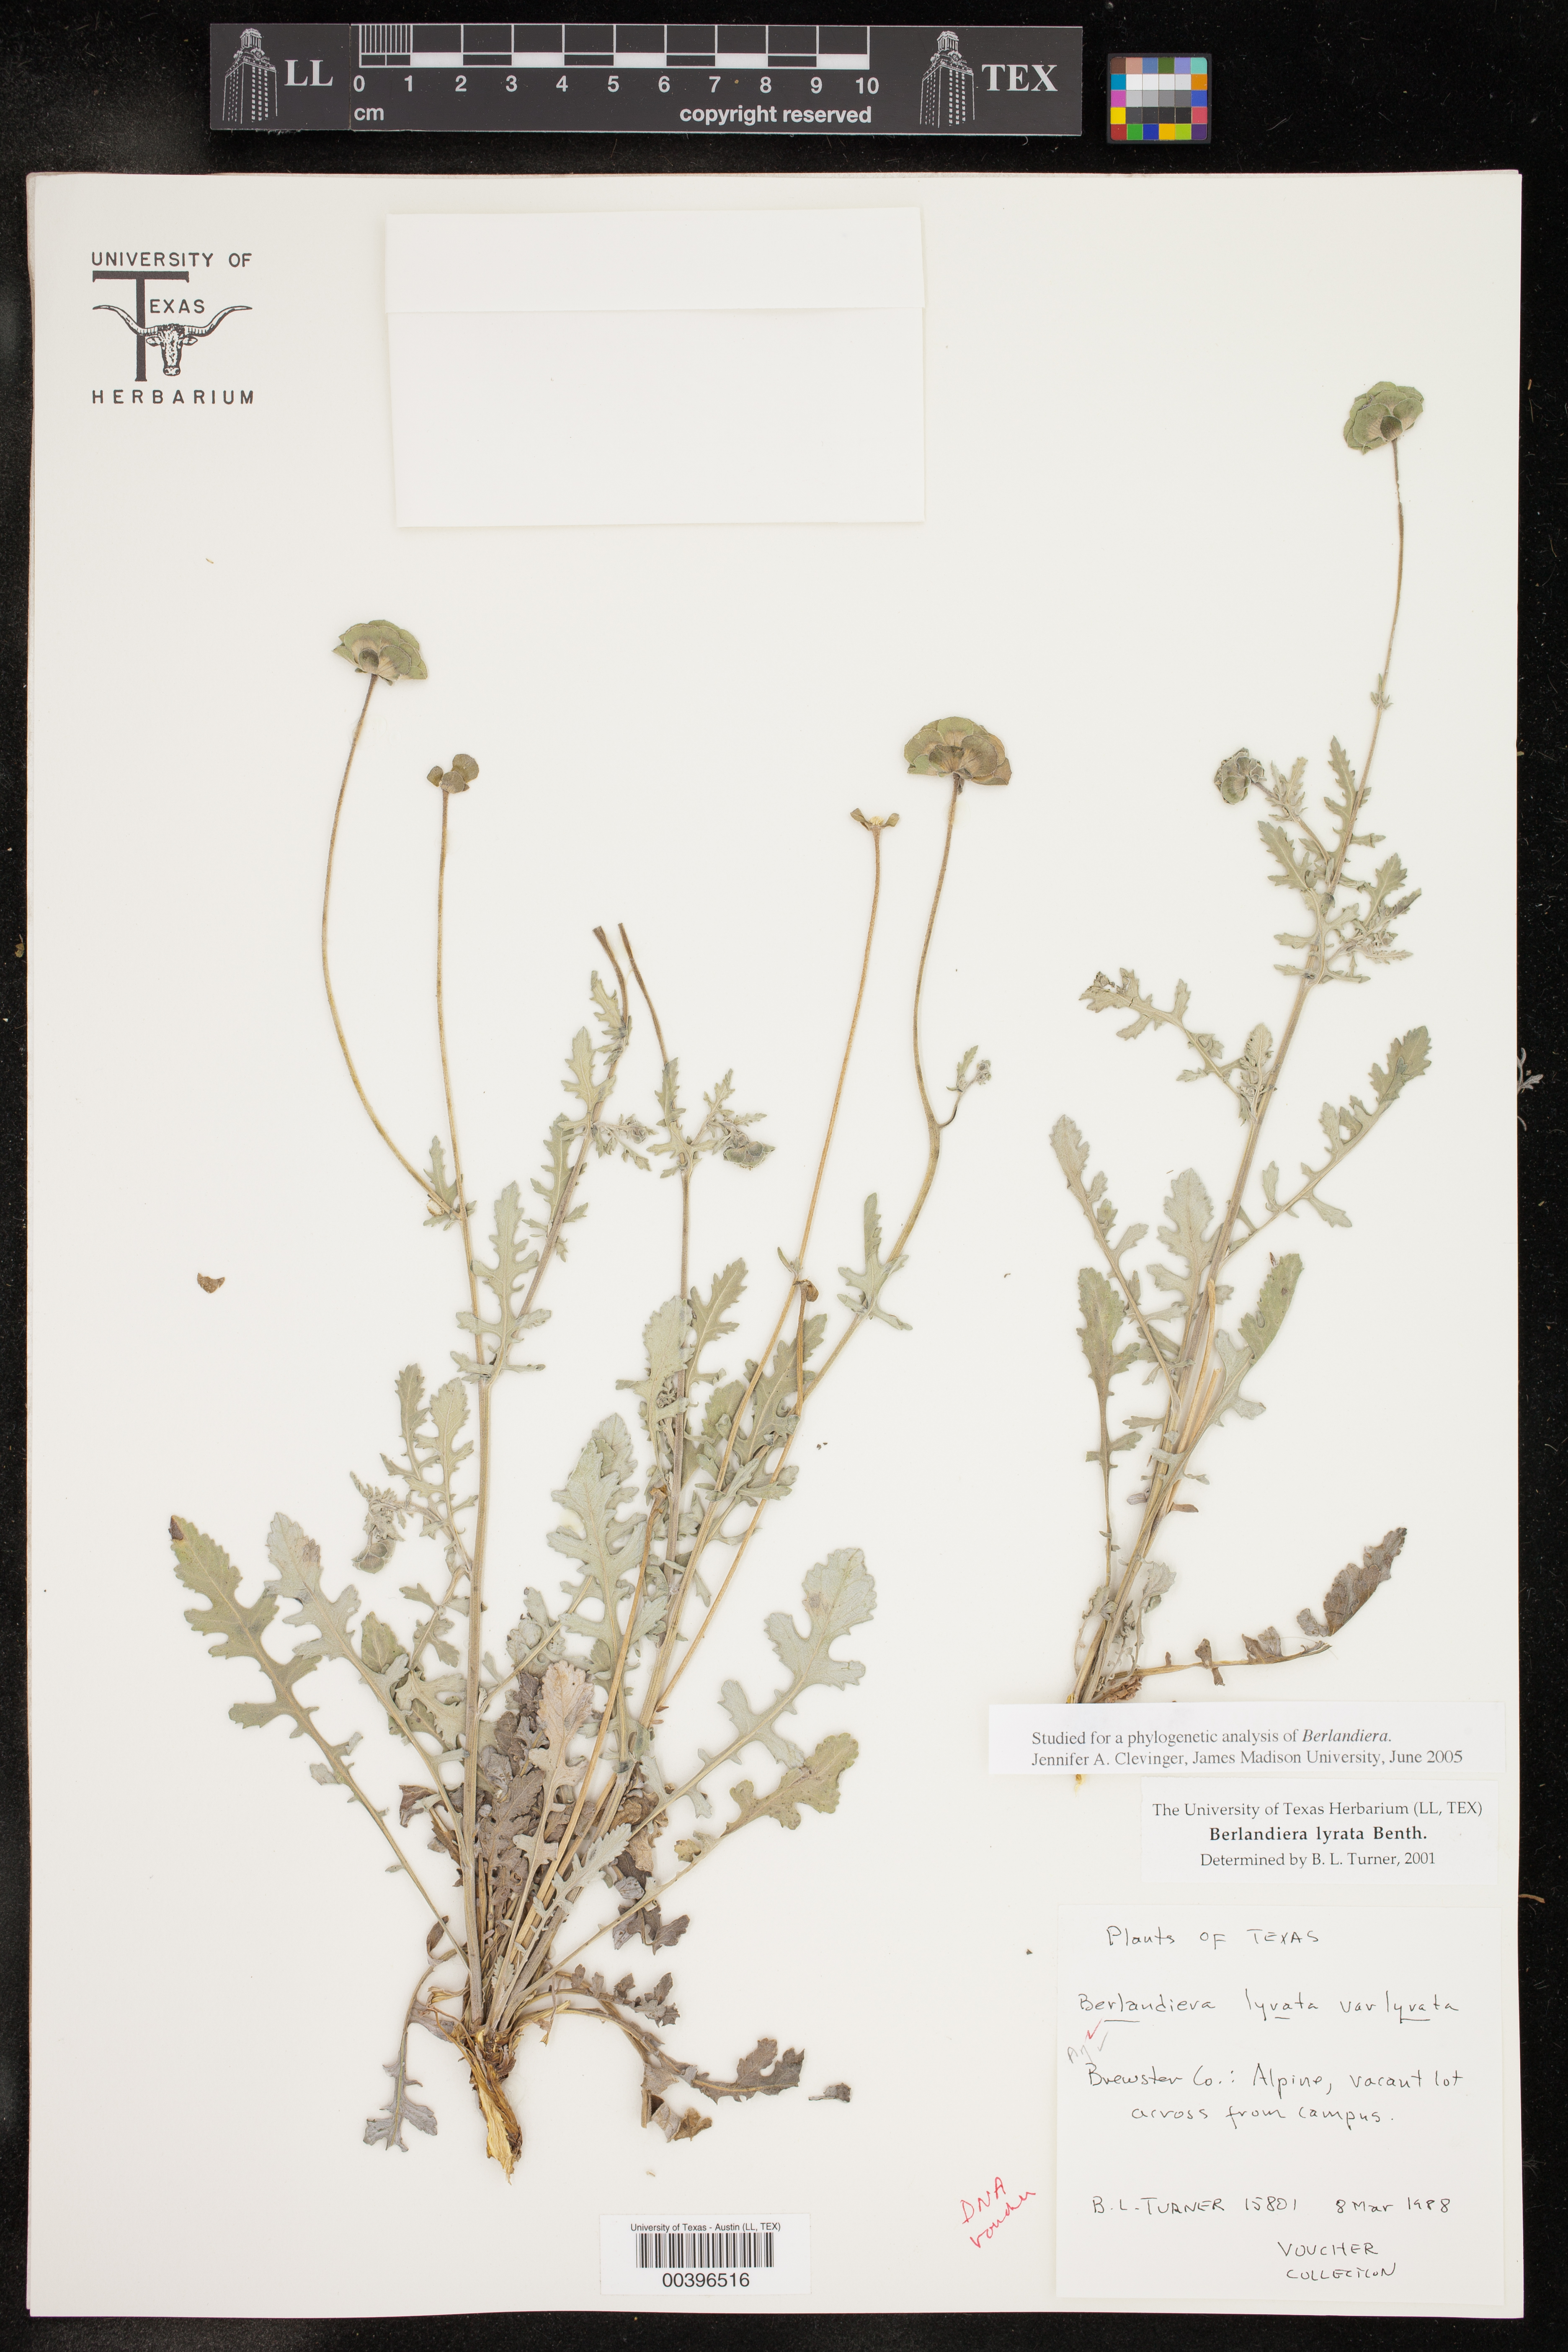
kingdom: Plantae
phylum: Tracheophyta
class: Magnoliopsida
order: Asterales
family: Asteraceae
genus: Berlandiera
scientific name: Berlandiera lyrata
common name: Chocolate-flower
